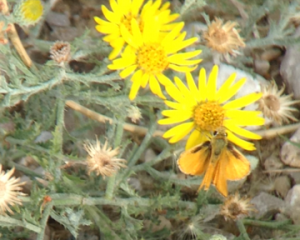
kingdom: Animalia
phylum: Arthropoda
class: Insecta
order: Lepidoptera
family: Hesperiidae
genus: Copaeodes
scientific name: Copaeodes aurantiaca
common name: Orange Skipperling
